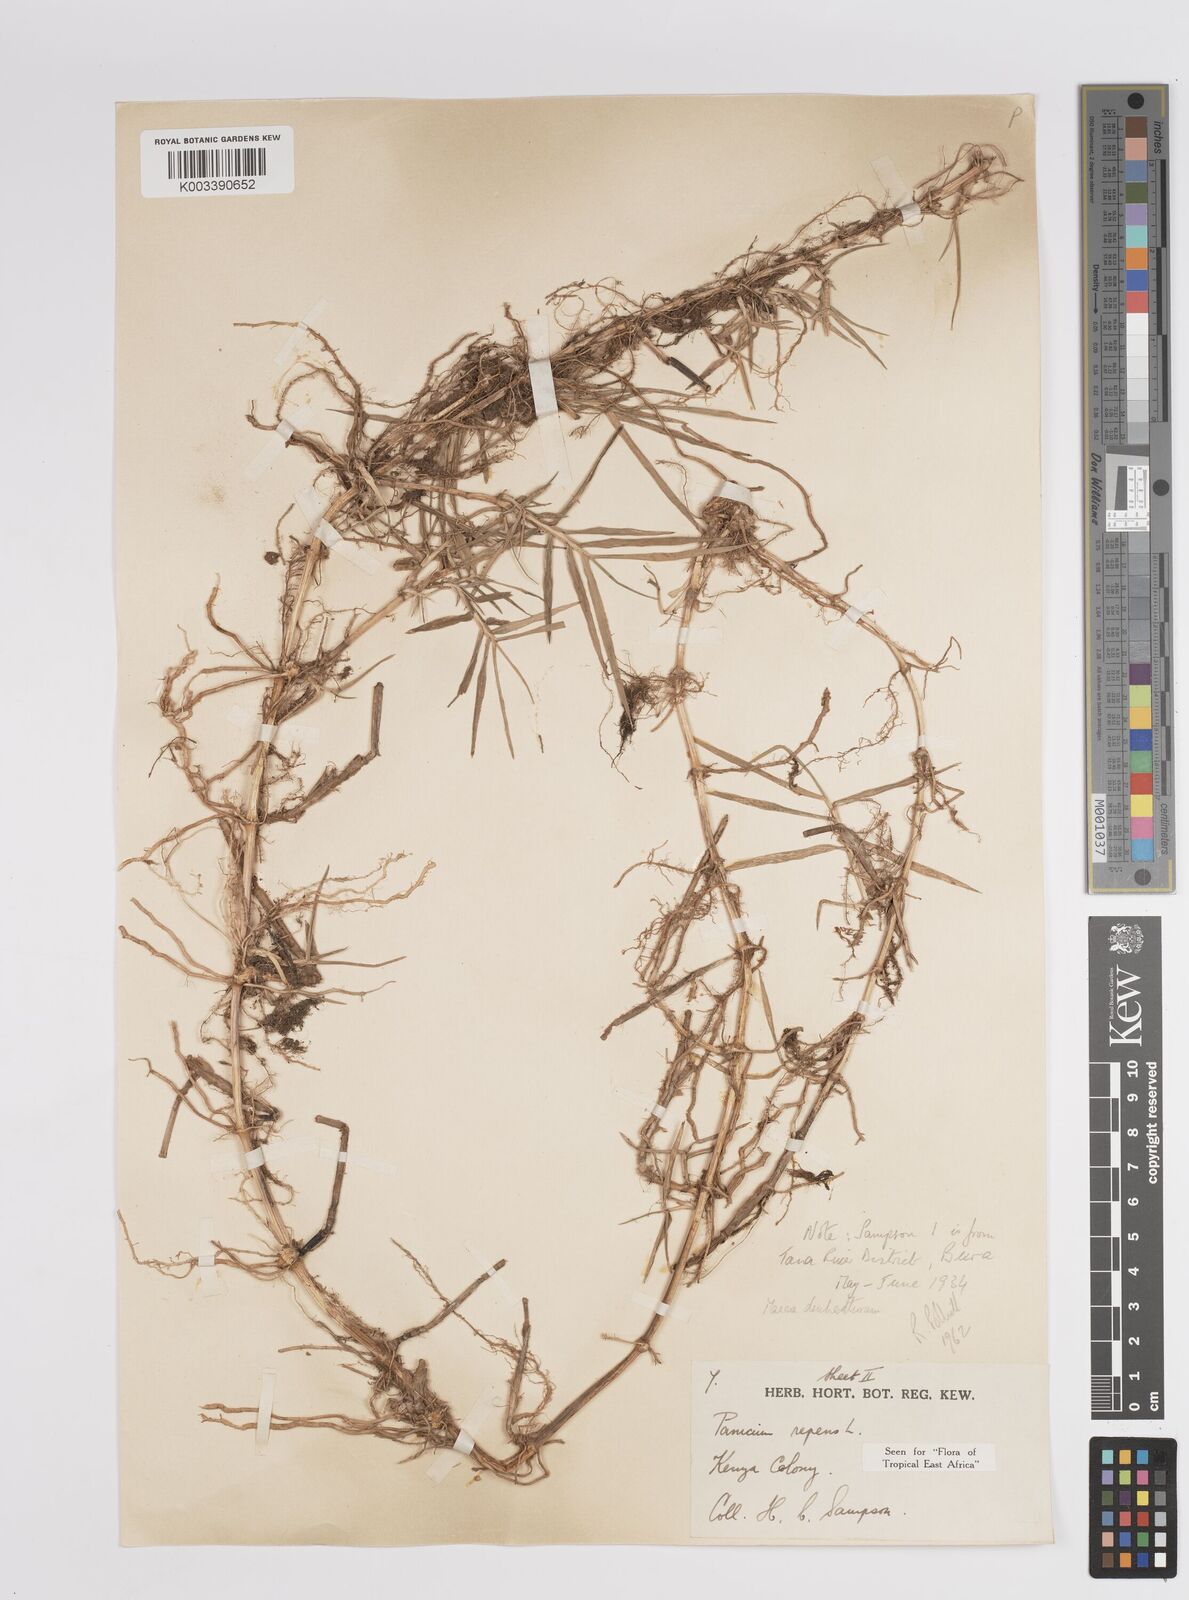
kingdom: Plantae
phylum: Tracheophyta
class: Liliopsida
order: Poales
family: Poaceae
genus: Panicum
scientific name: Panicum repens
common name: Torpedo grass
